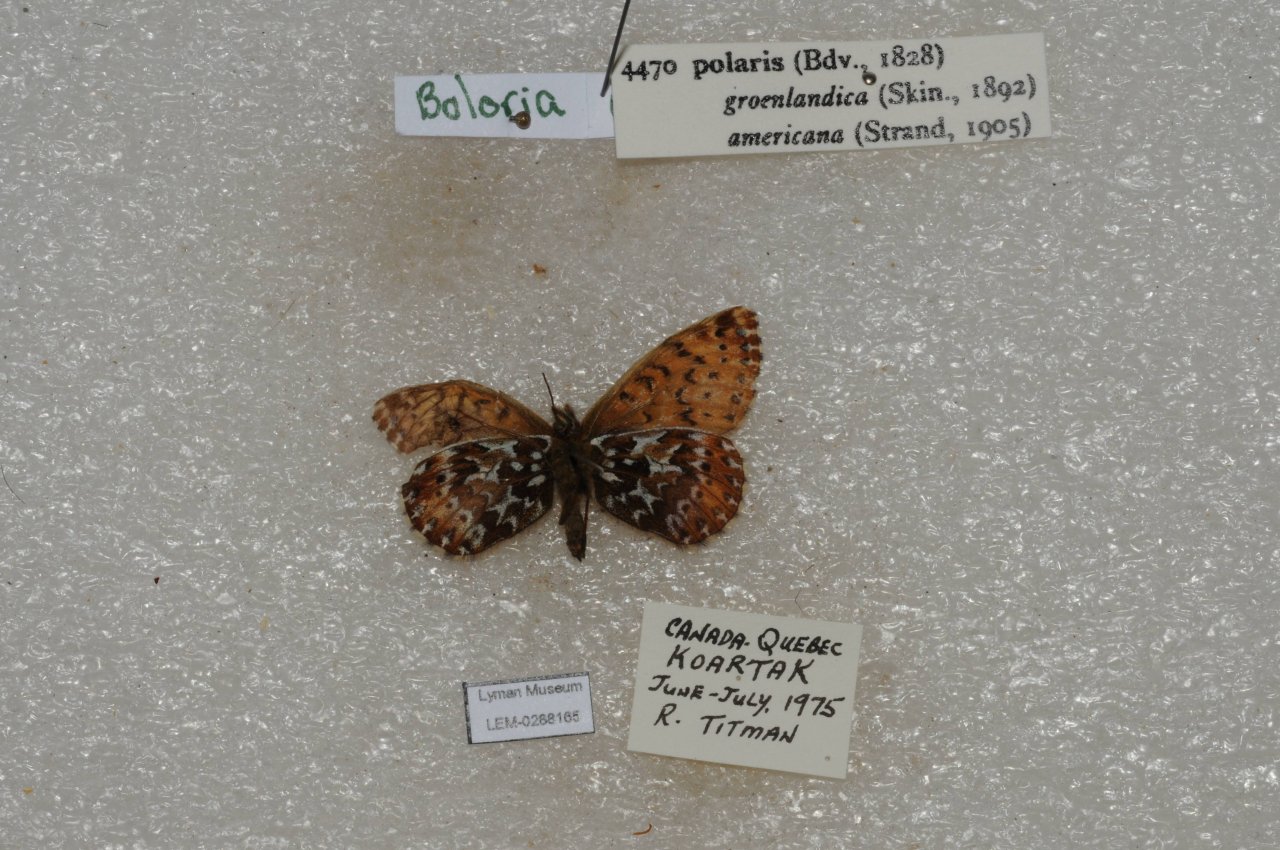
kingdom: Animalia
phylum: Arthropoda
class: Insecta
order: Lepidoptera
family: Nymphalidae
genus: Clossiana
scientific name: Clossiana polaris
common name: Polaris Fritillary
